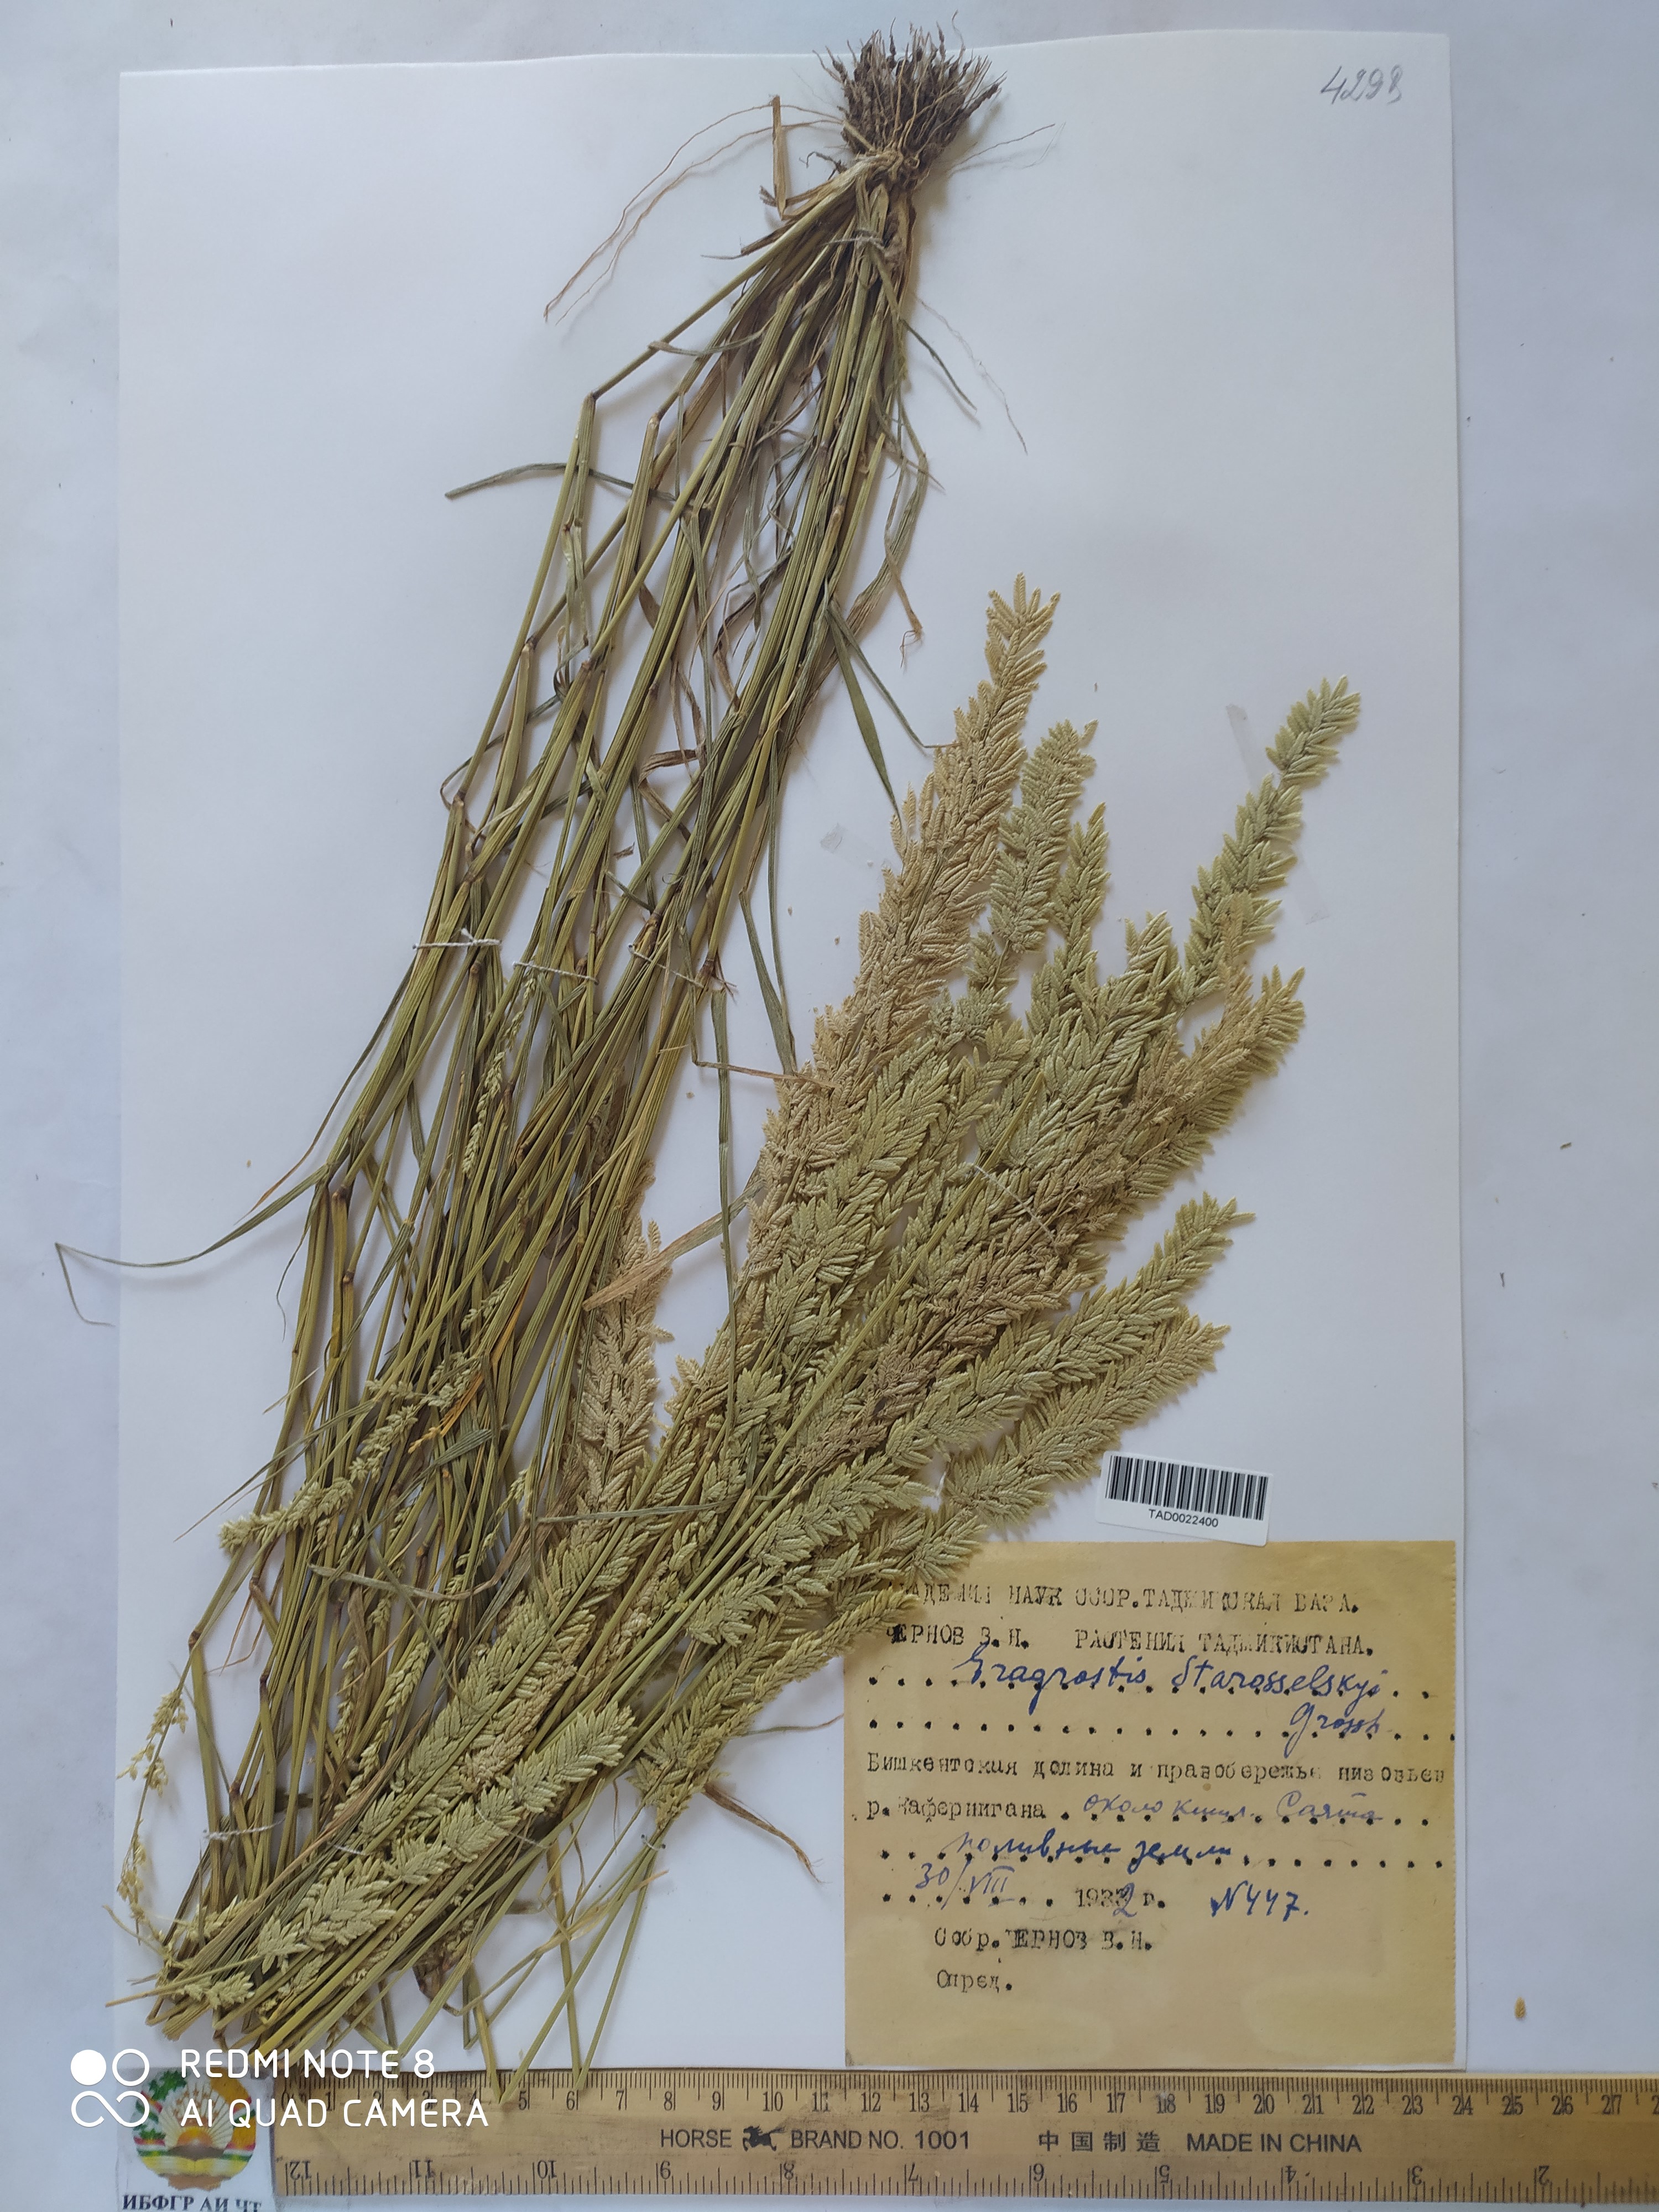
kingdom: Plantae
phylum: Tracheophyta
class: Liliopsida
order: Poales
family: Poaceae
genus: Eragrostis
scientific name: Eragrostis cilianensis
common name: Stinkgrass
